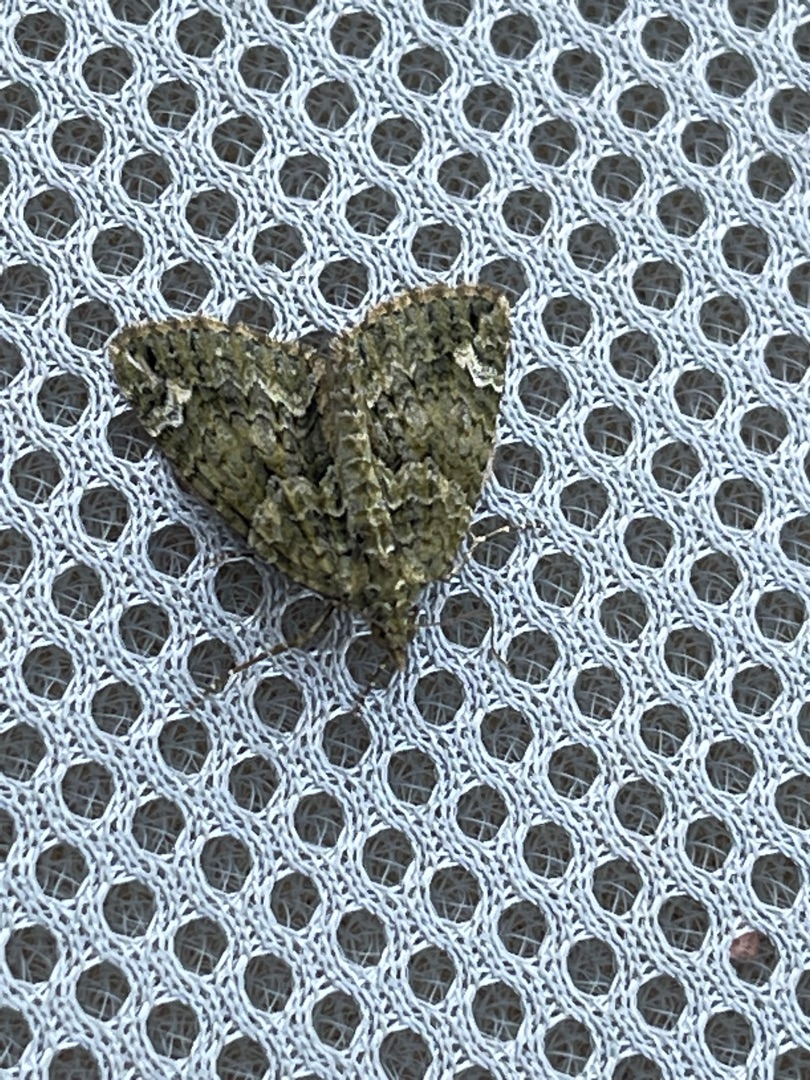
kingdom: Animalia
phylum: Arthropoda
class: Insecta
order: Lepidoptera
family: Geometridae
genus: Chloroclysta
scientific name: Chloroclysta siterata
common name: Brungrøn bladmåler
